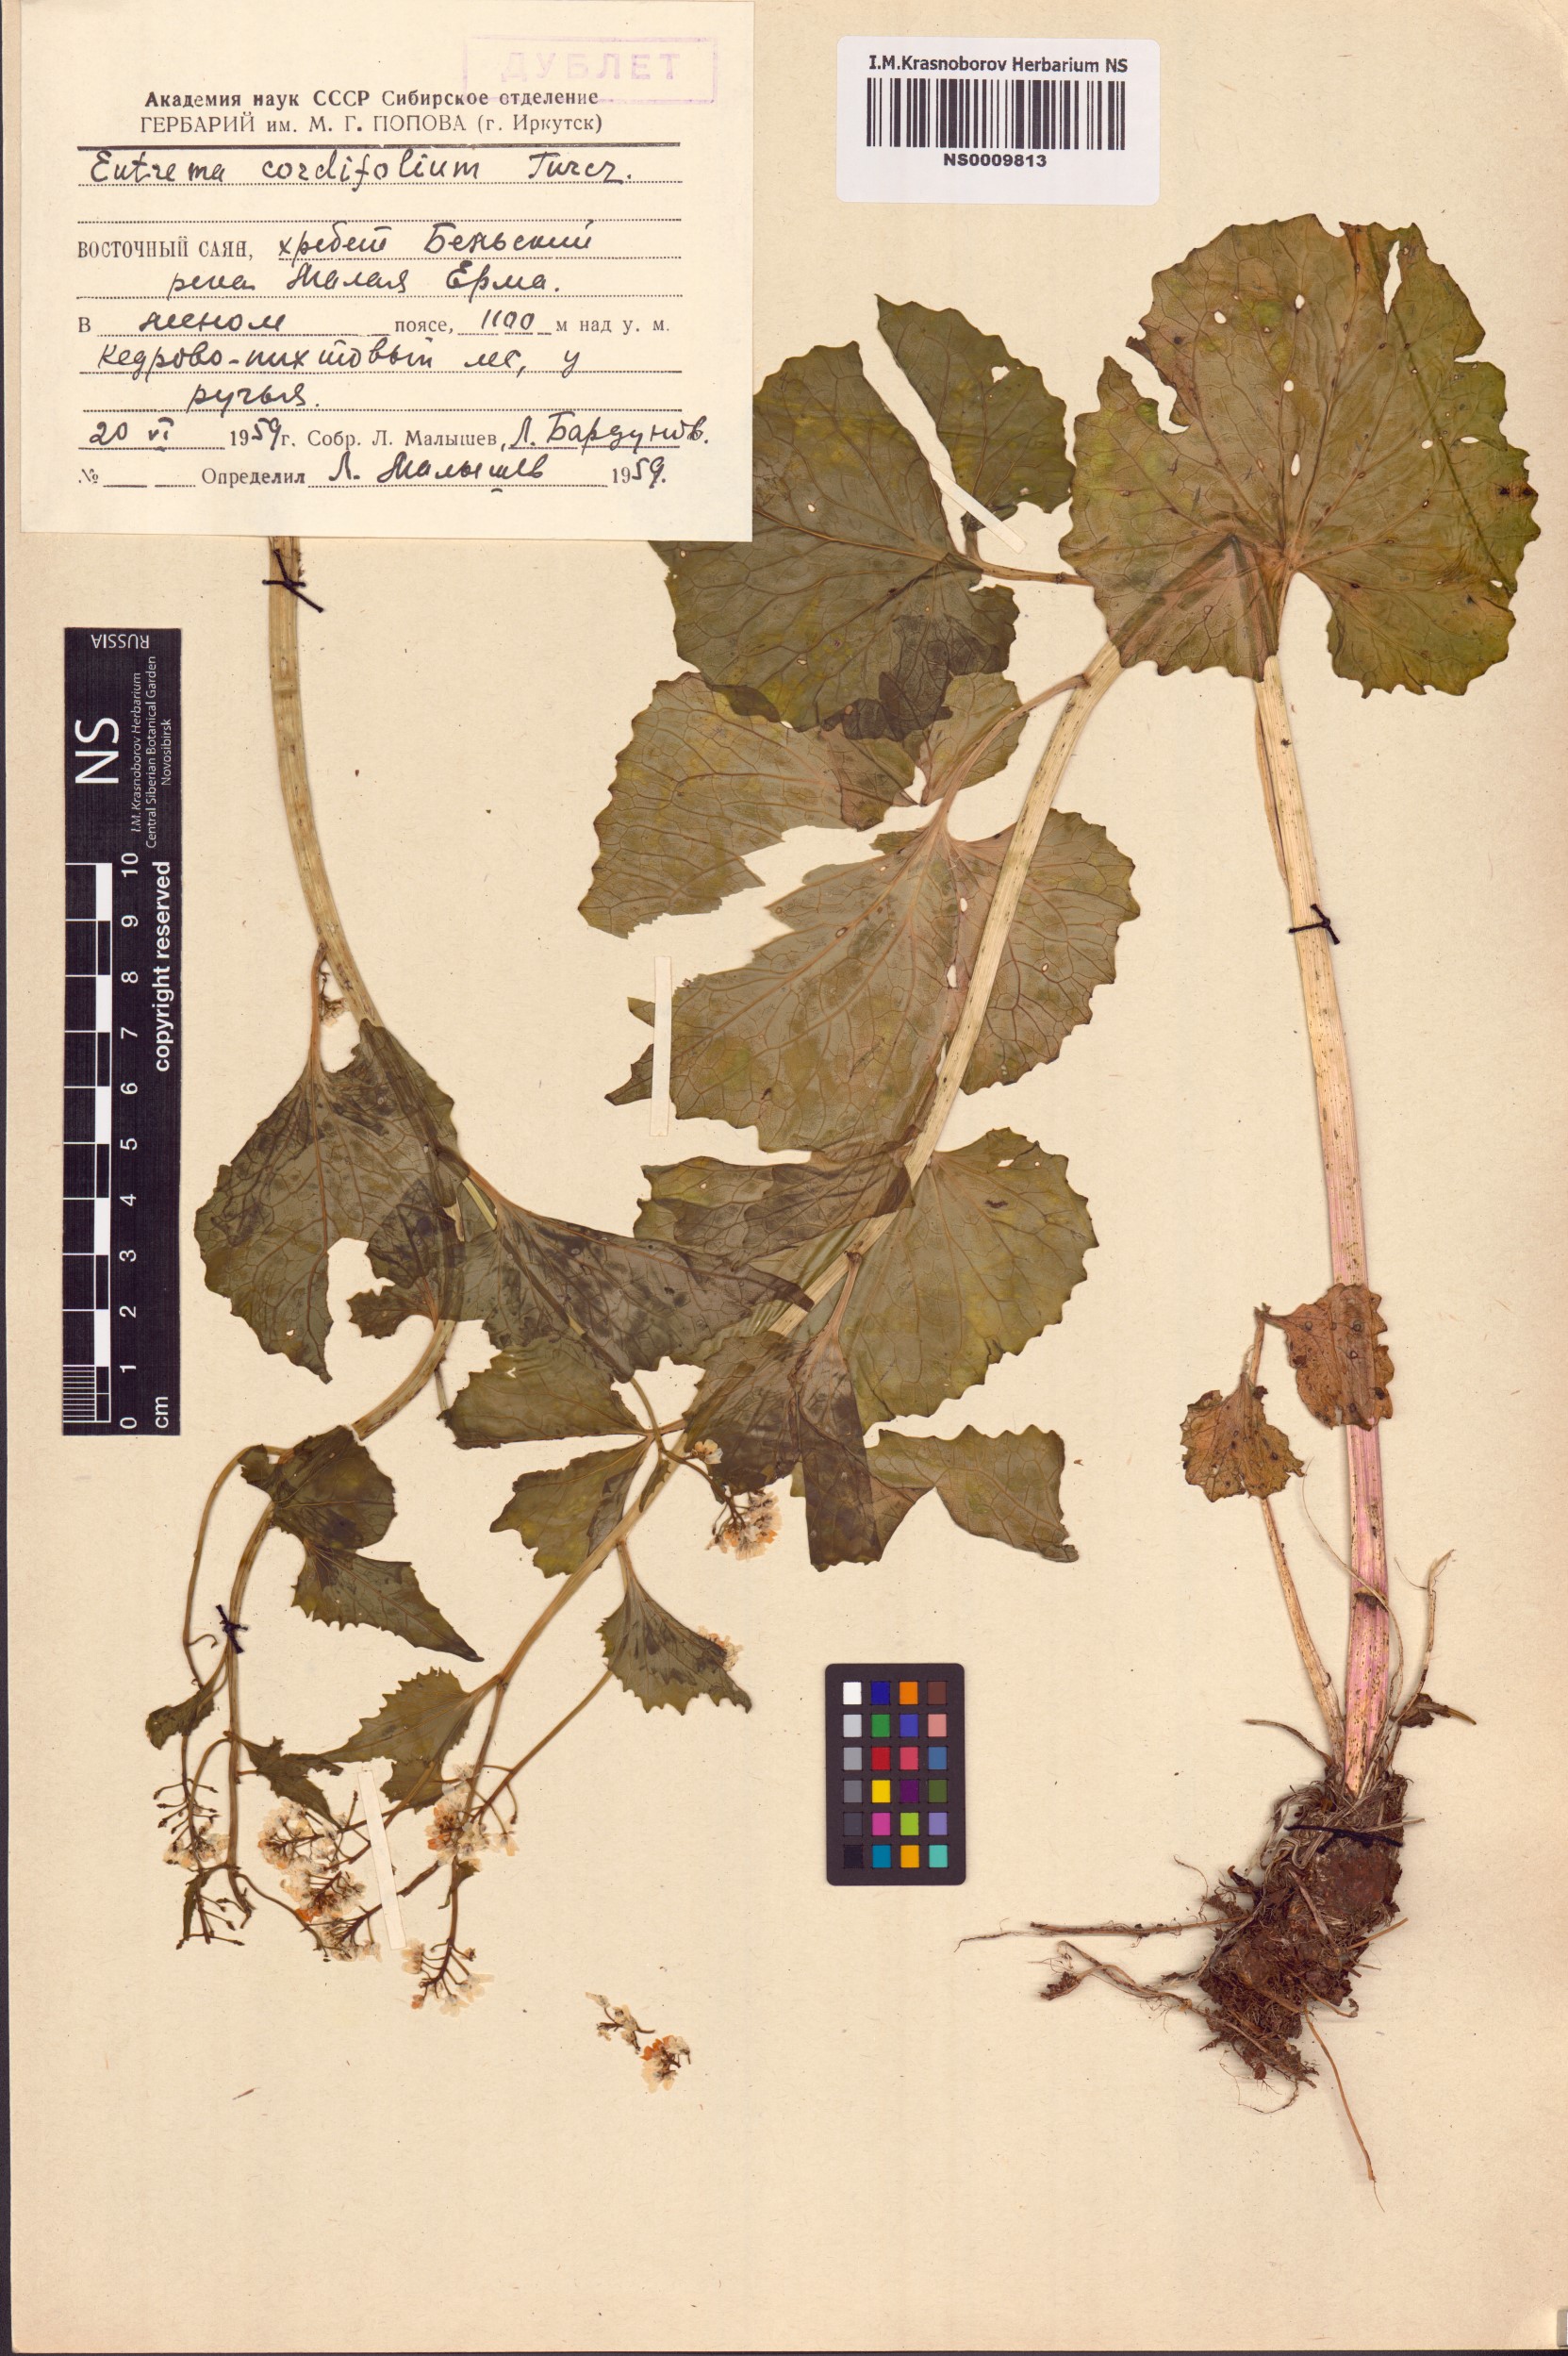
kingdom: Plantae
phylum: Tracheophyta
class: Magnoliopsida
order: Brassicales
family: Brassicaceae
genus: Eutrema
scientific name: Eutrema cordifolium
